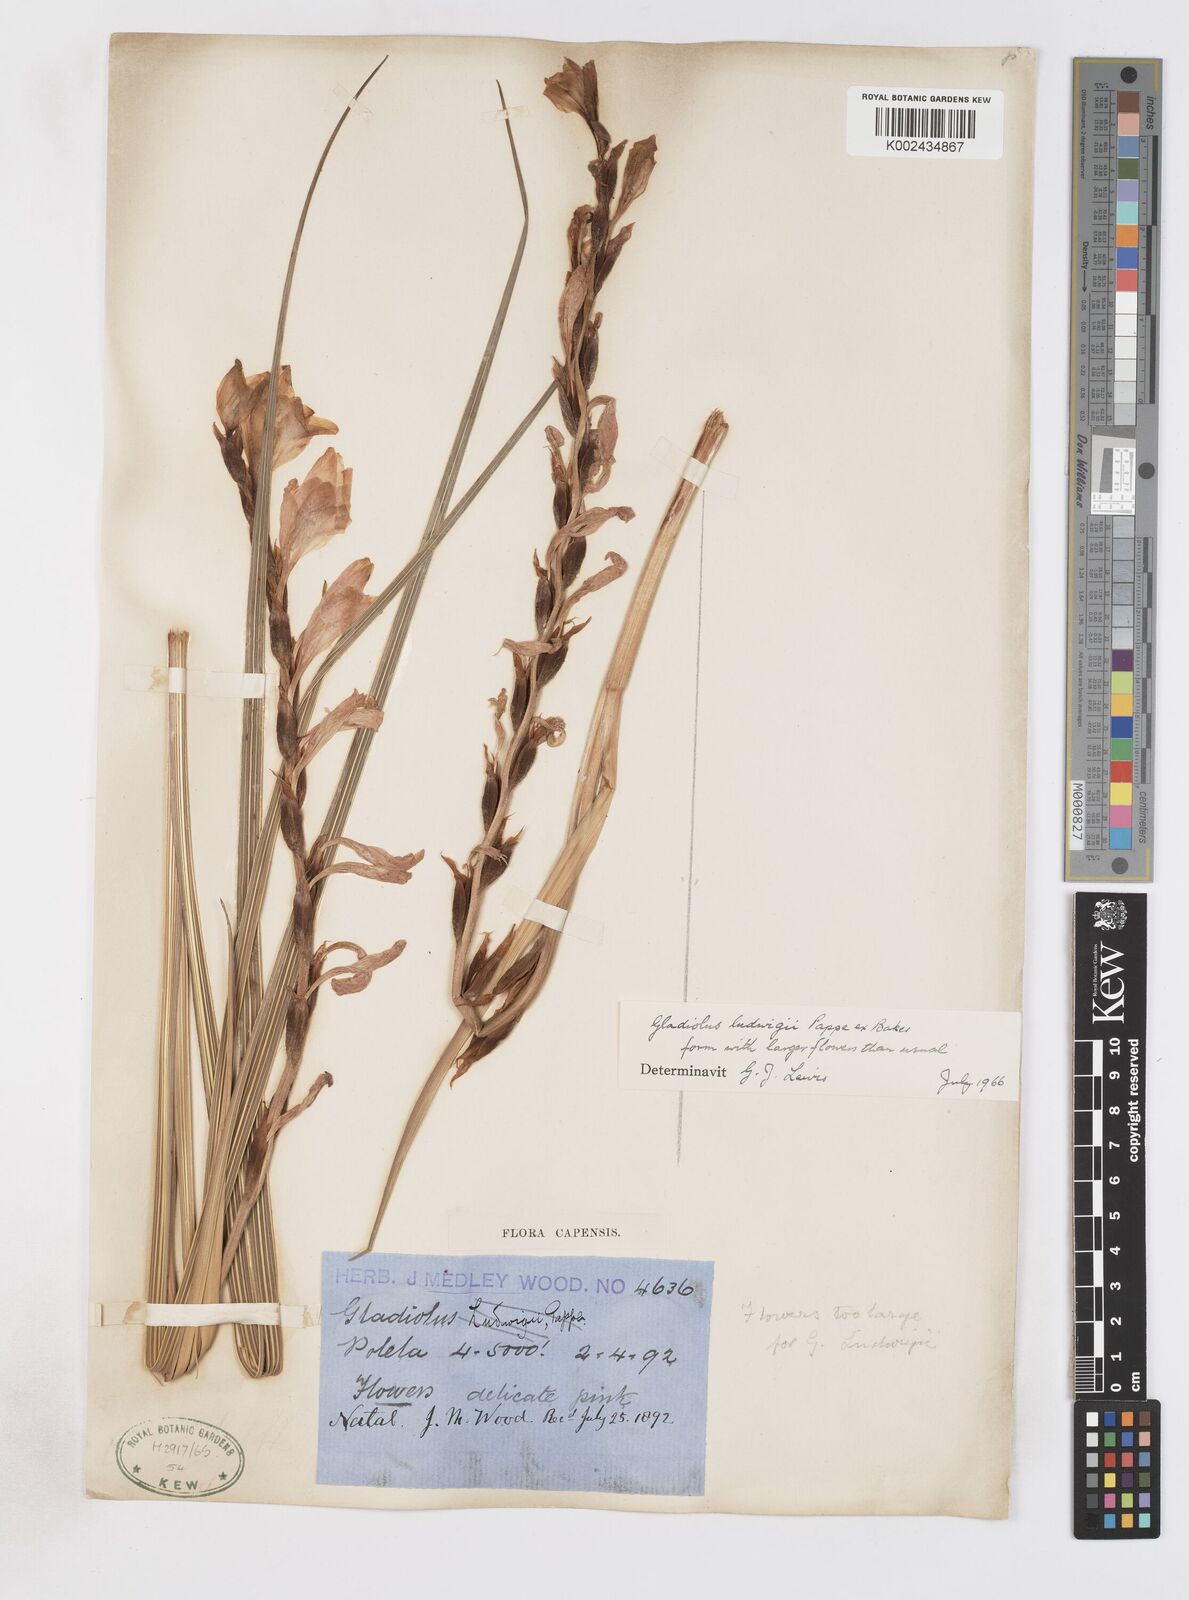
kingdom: Plantae
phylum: Tracheophyta
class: Liliopsida
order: Asparagales
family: Iridaceae
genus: Gladiolus
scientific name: Gladiolus oppositiflorus
